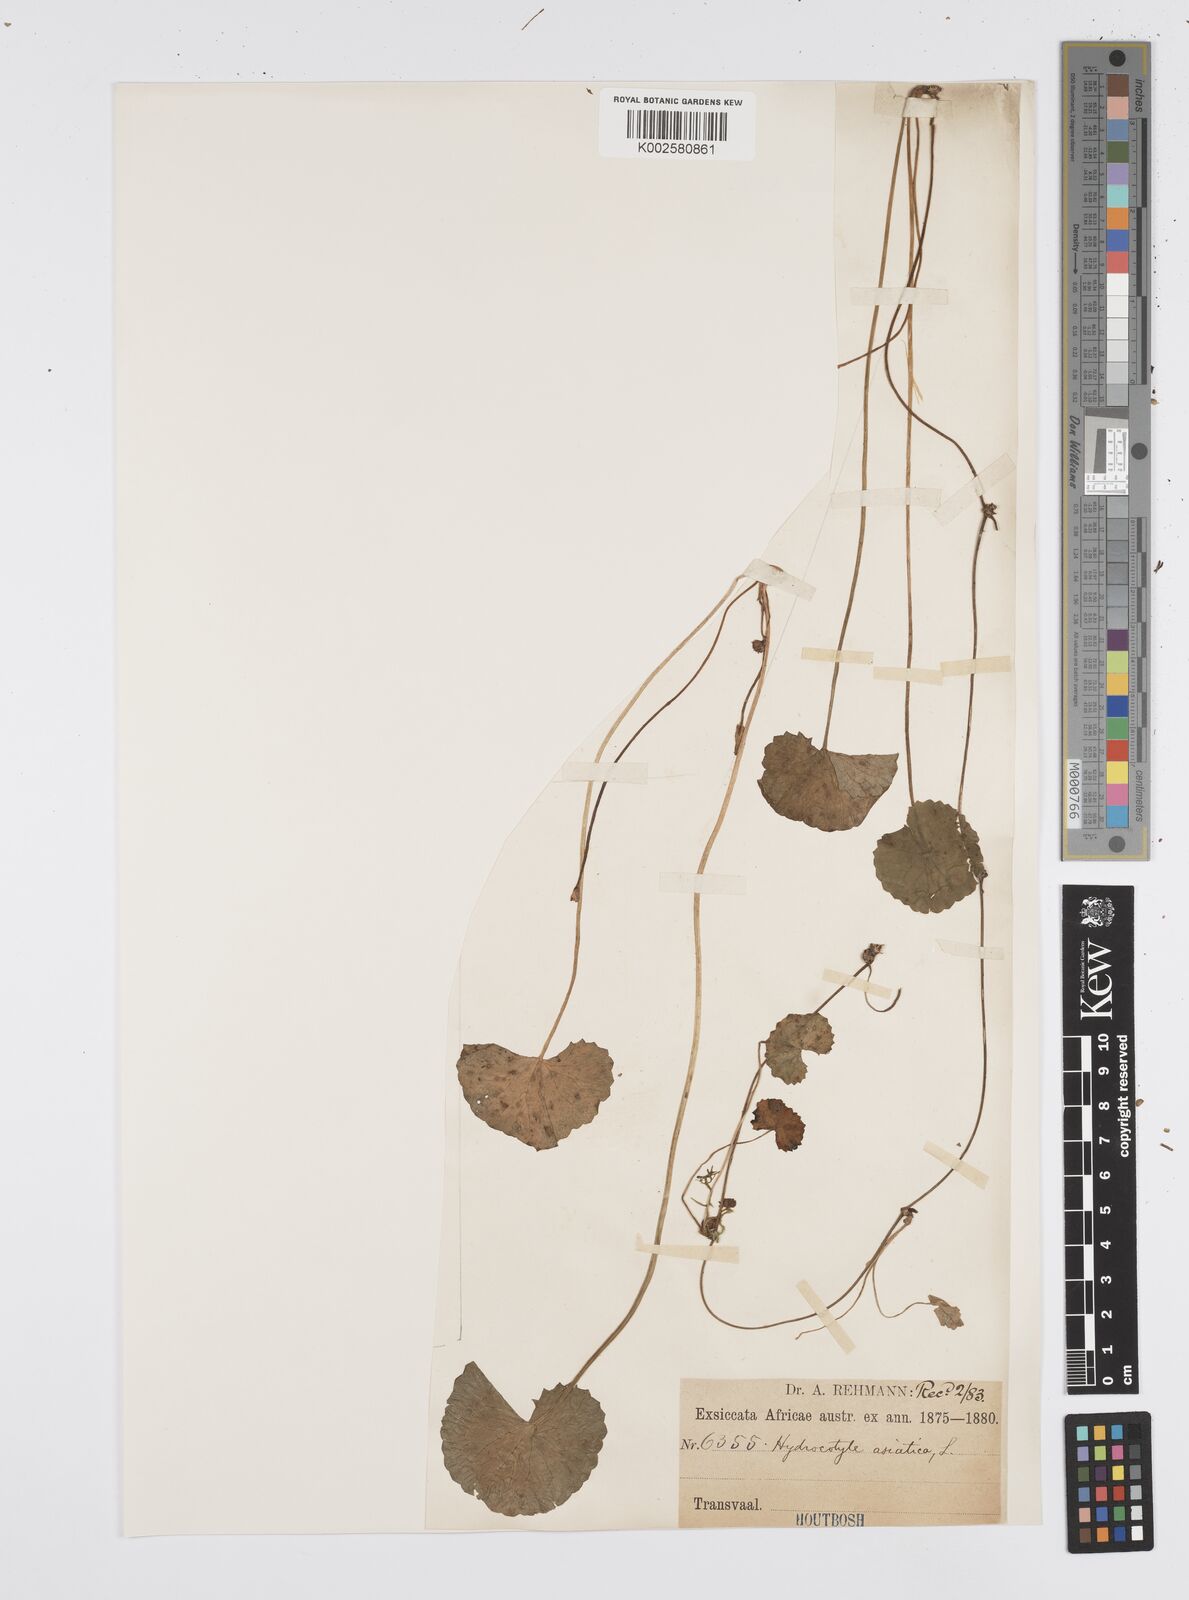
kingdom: Plantae
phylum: Tracheophyta
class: Magnoliopsida
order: Apiales
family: Apiaceae
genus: Centella
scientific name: Centella coriacea
